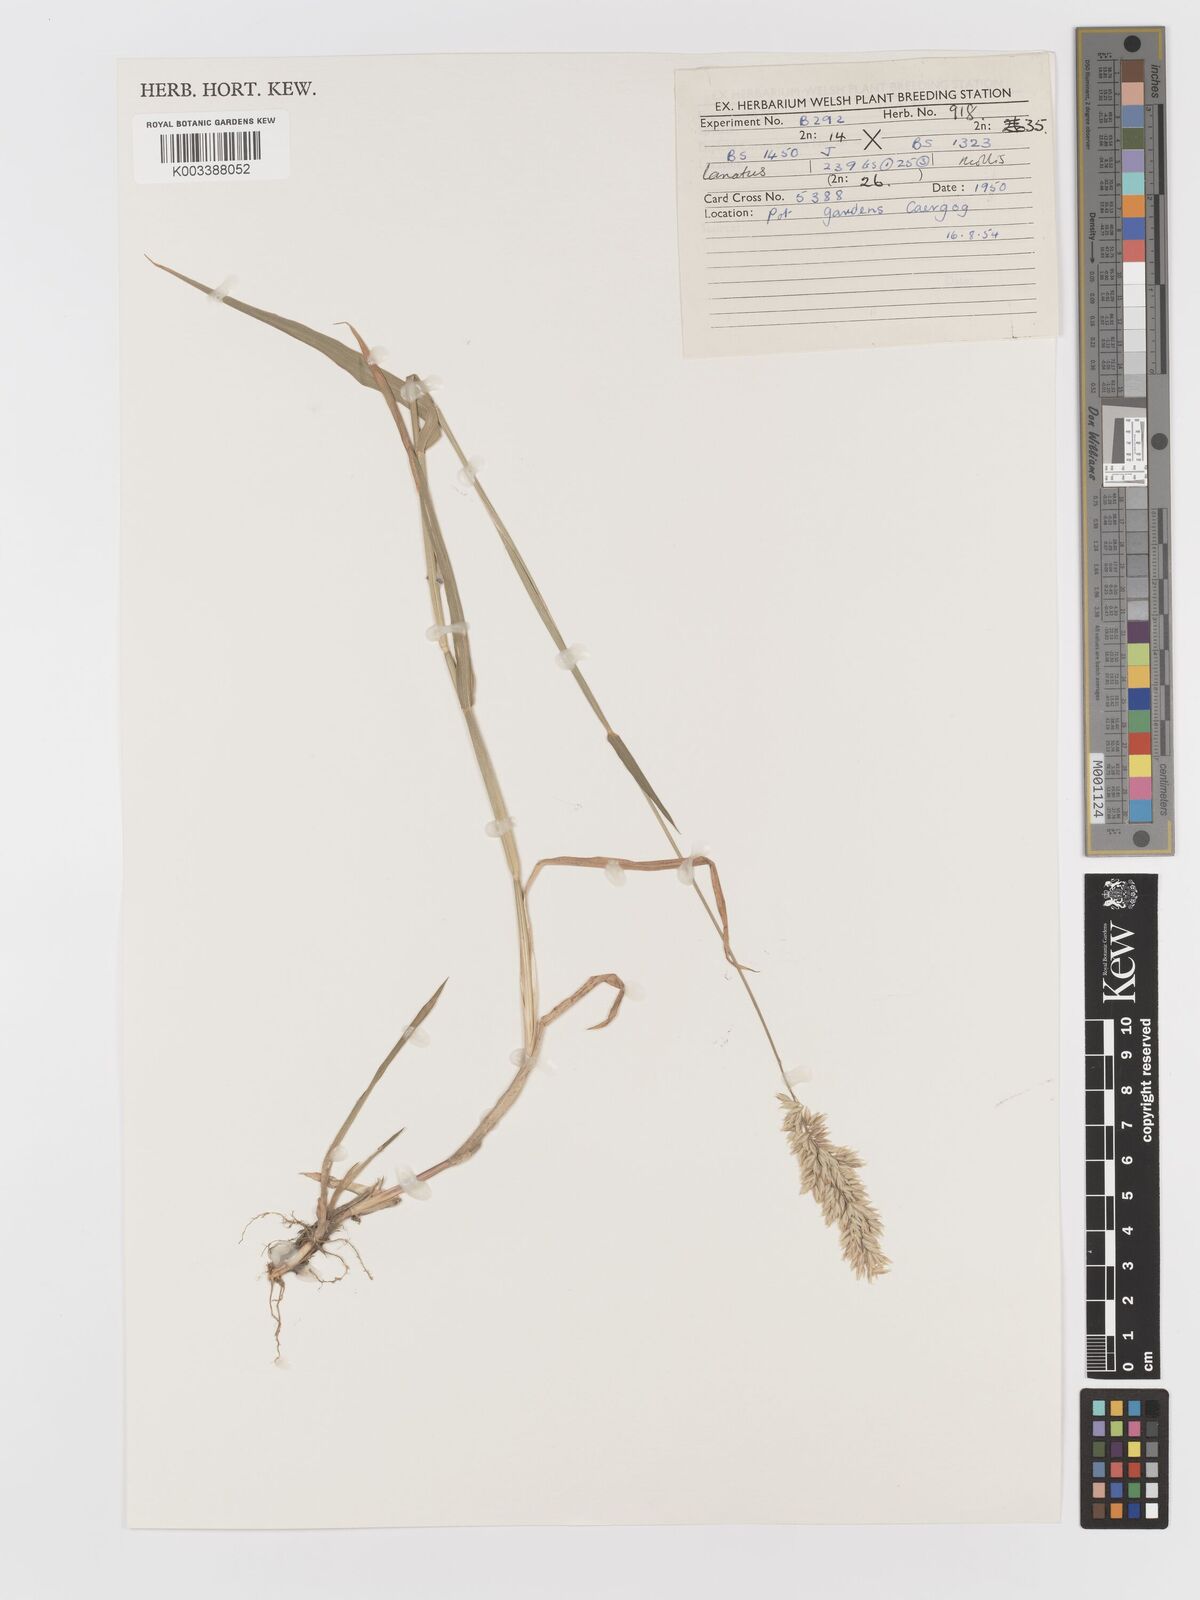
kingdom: Plantae
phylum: Tracheophyta
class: Liliopsida
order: Poales
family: Poaceae
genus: Holcus
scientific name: Holcus lanatus
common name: Yorkshire-fog
